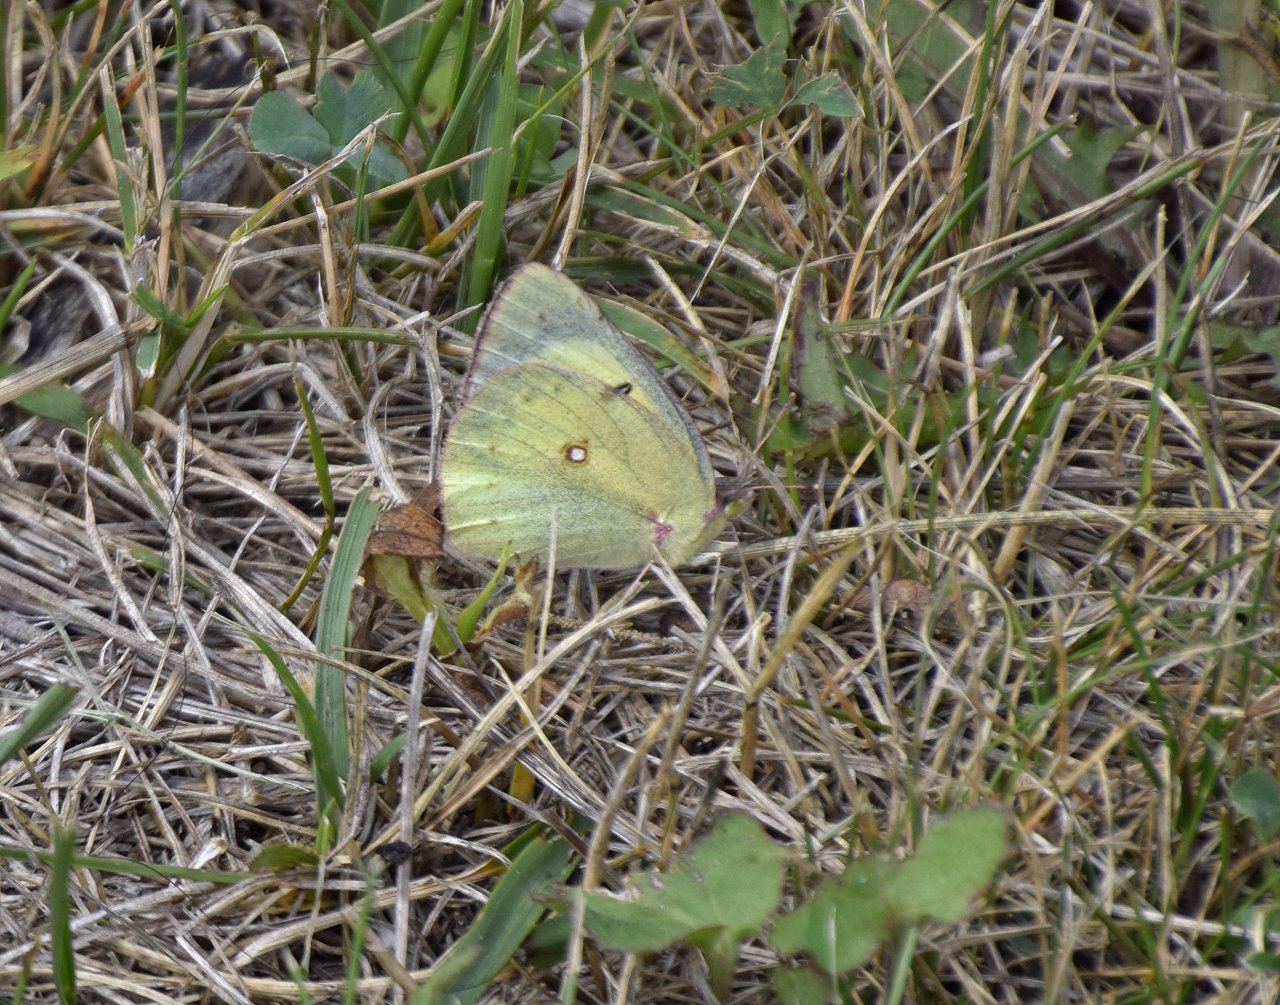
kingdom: Animalia
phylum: Arthropoda
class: Insecta
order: Lepidoptera
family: Pieridae
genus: Colias
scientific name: Colias philodice
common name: Clouded Sulphur
